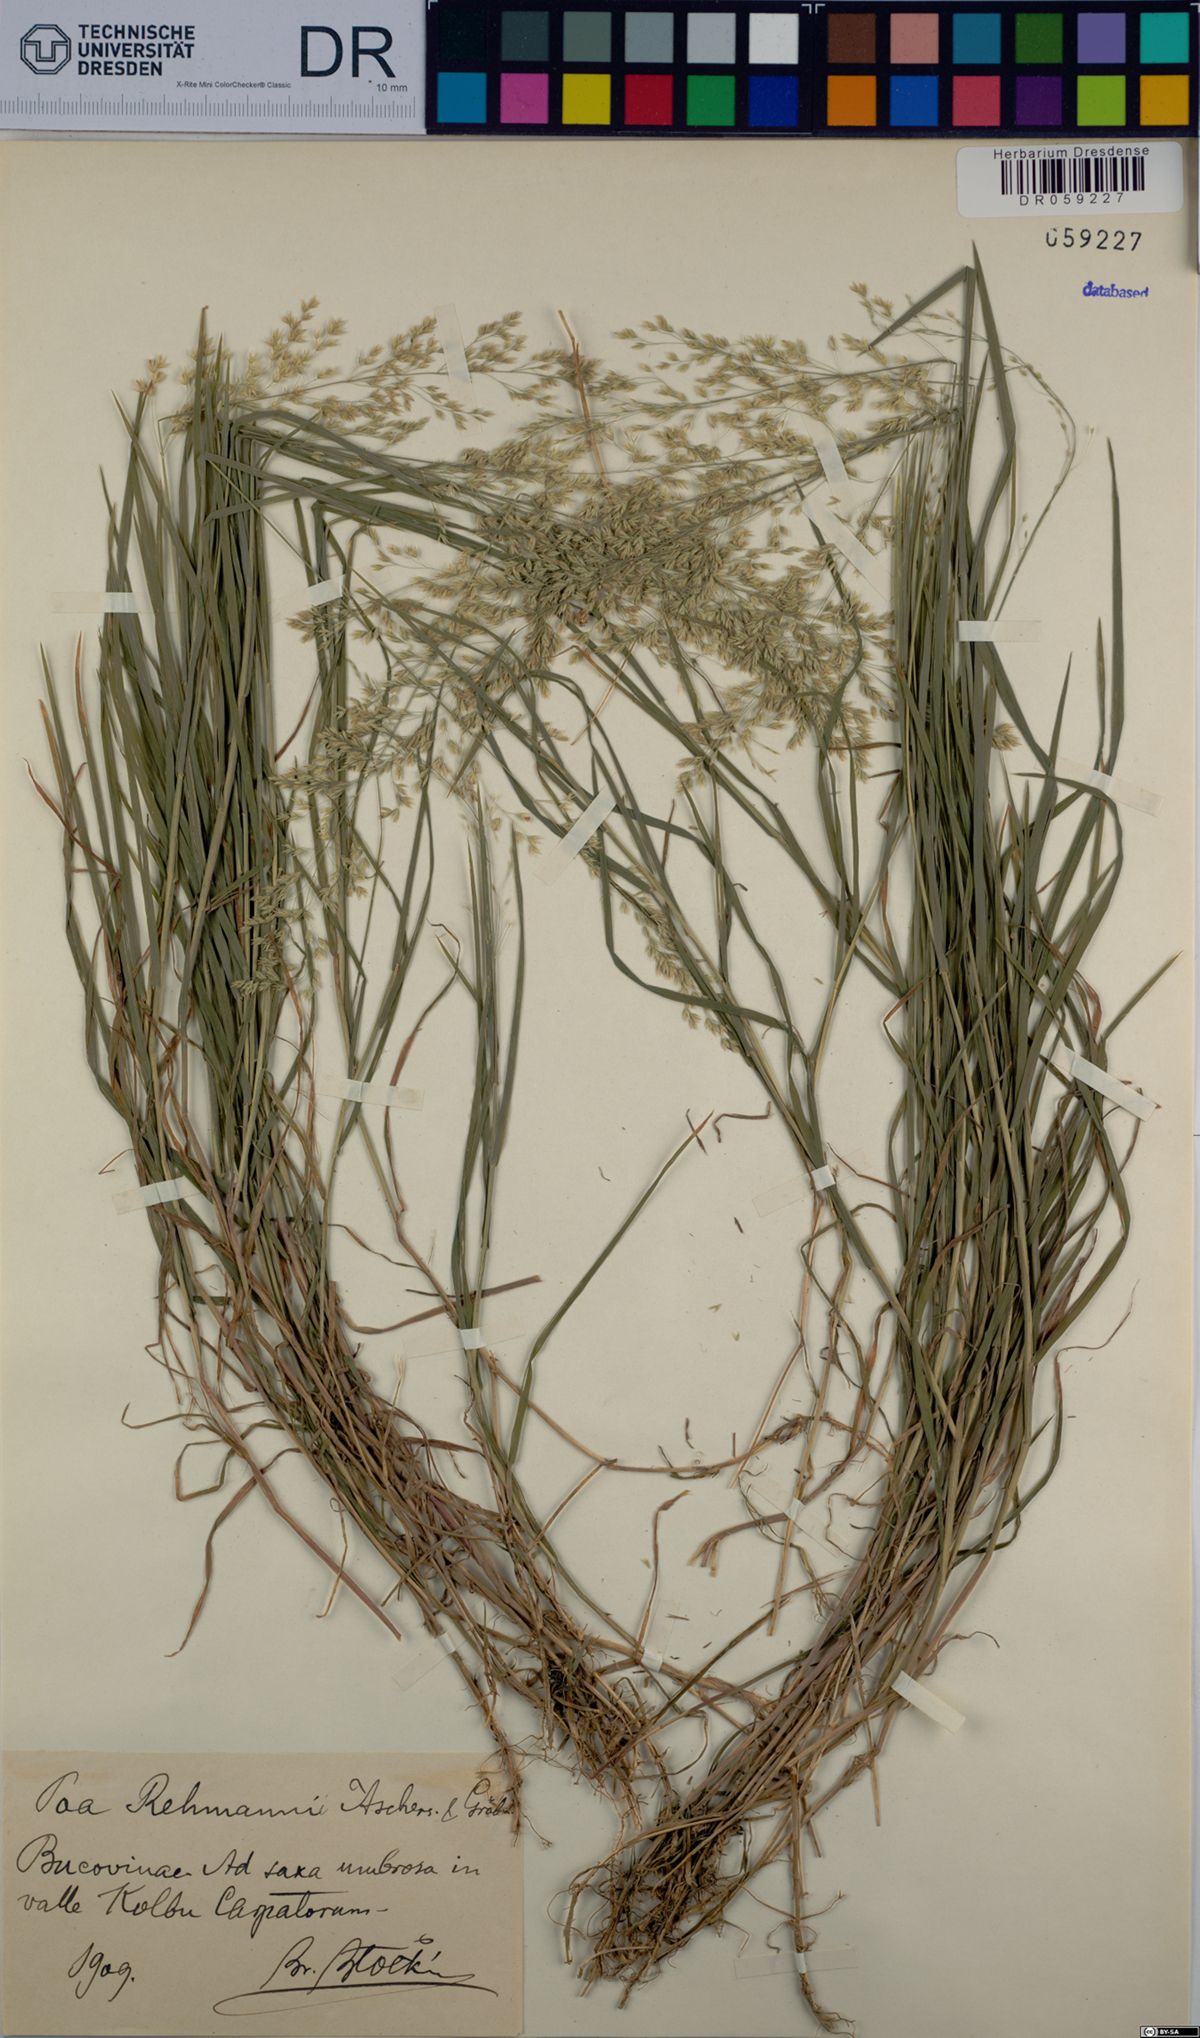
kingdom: Plantae
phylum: Tracheophyta
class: Liliopsida
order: Poales
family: Poaceae
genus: Poa
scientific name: Poa rehmannii
